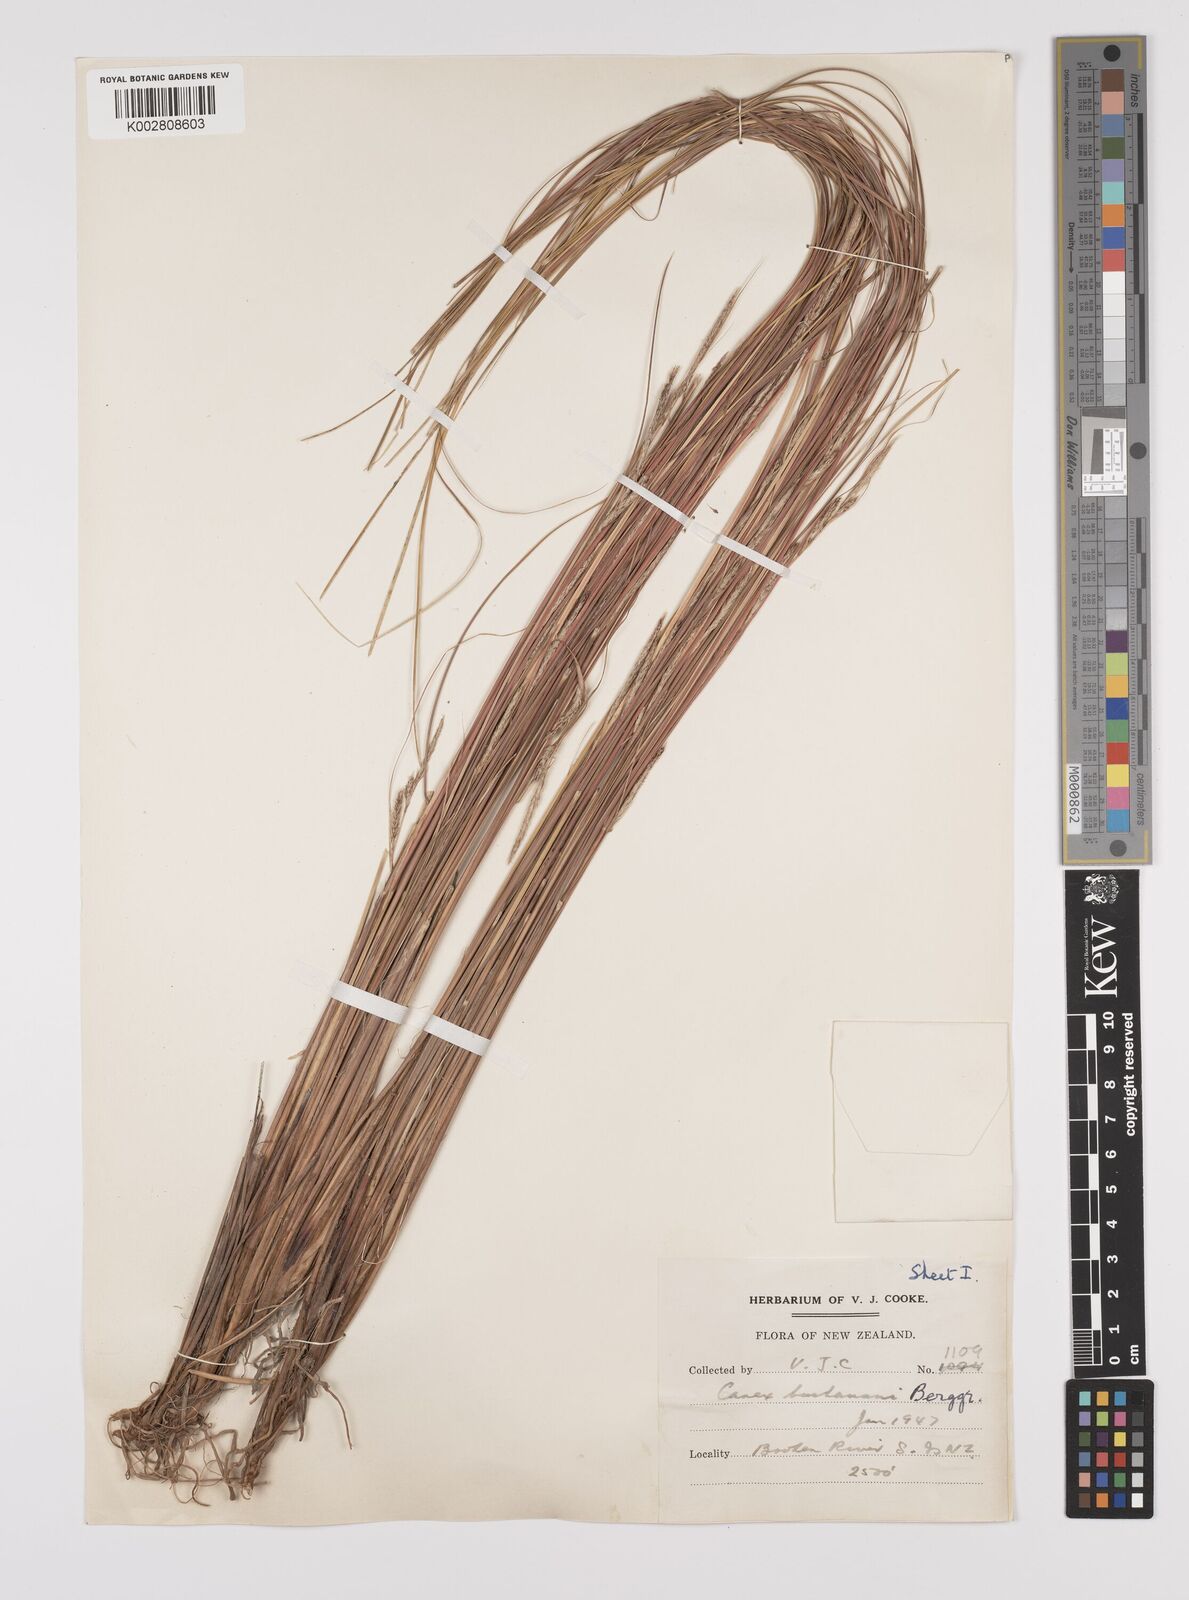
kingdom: Plantae
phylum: Tracheophyta
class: Liliopsida
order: Poales
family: Cyperaceae
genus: Carex
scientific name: Carex flagellifera
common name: Glen murray tussock
